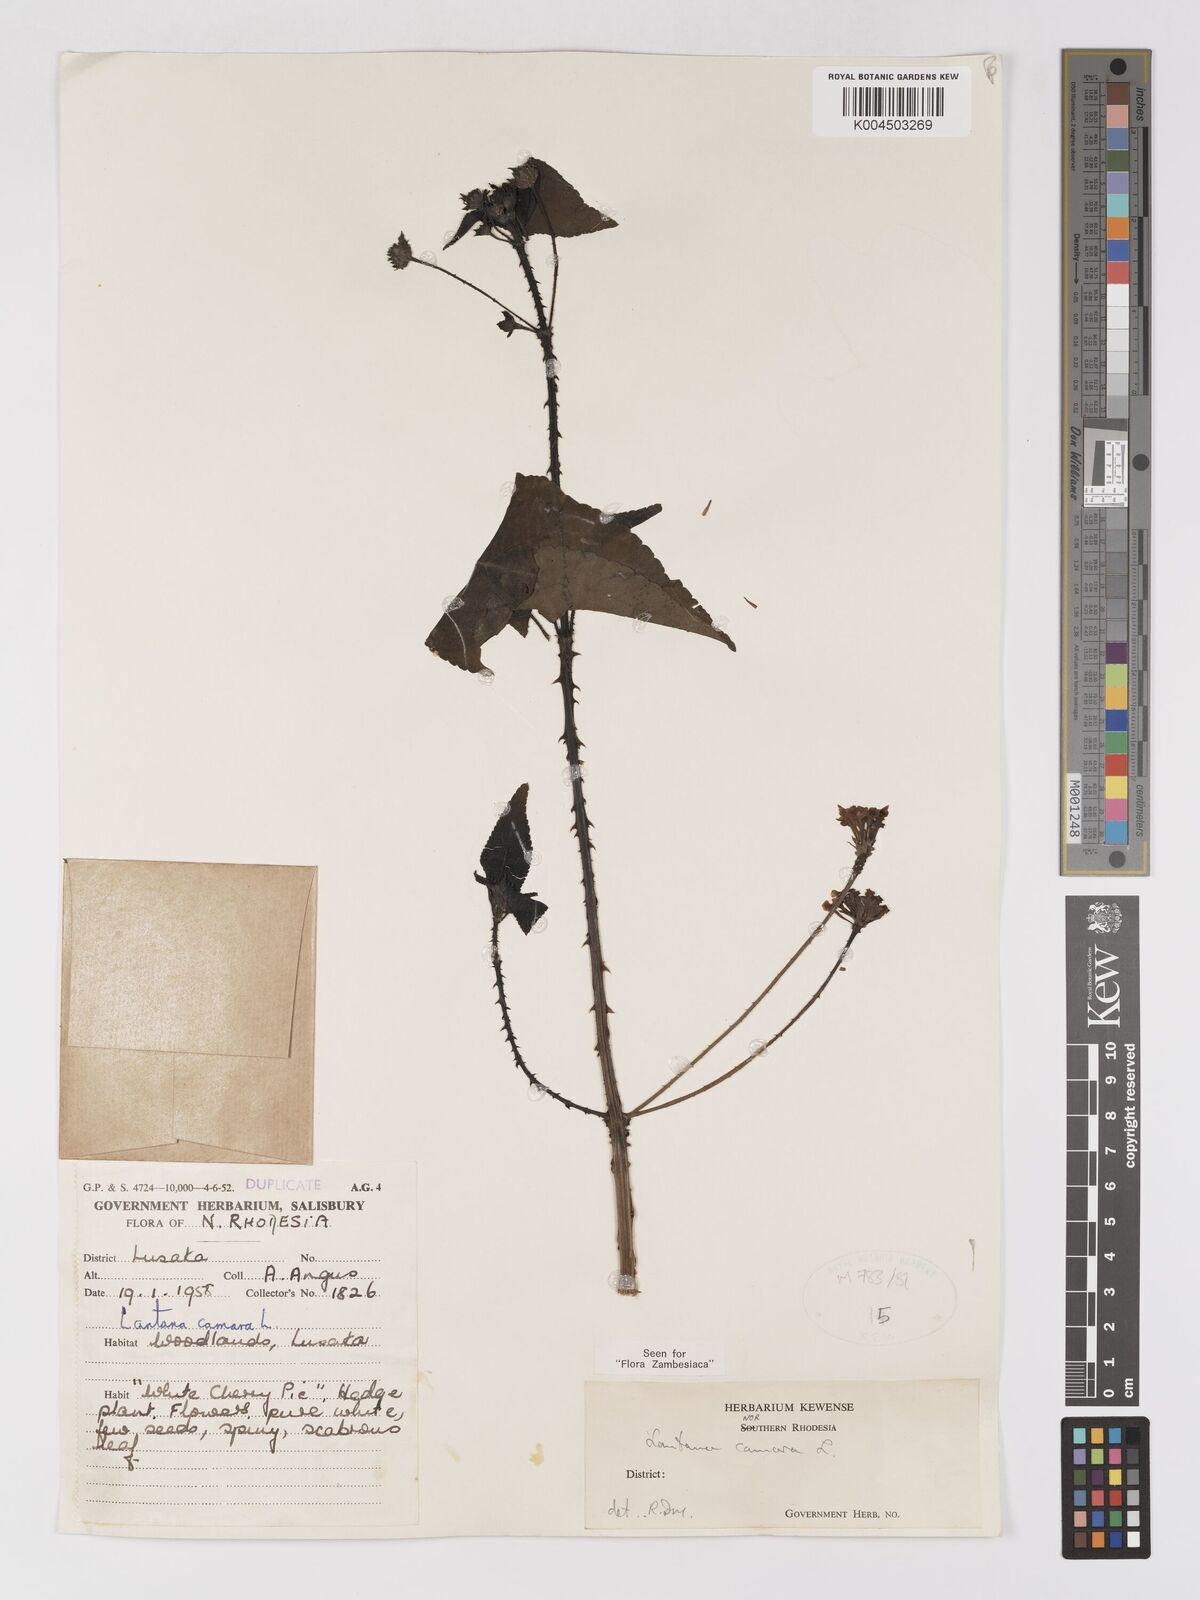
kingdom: Plantae
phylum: Tracheophyta
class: Magnoliopsida
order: Lamiales
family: Verbenaceae
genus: Lantana
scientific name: Lantana camara
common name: Lantana
